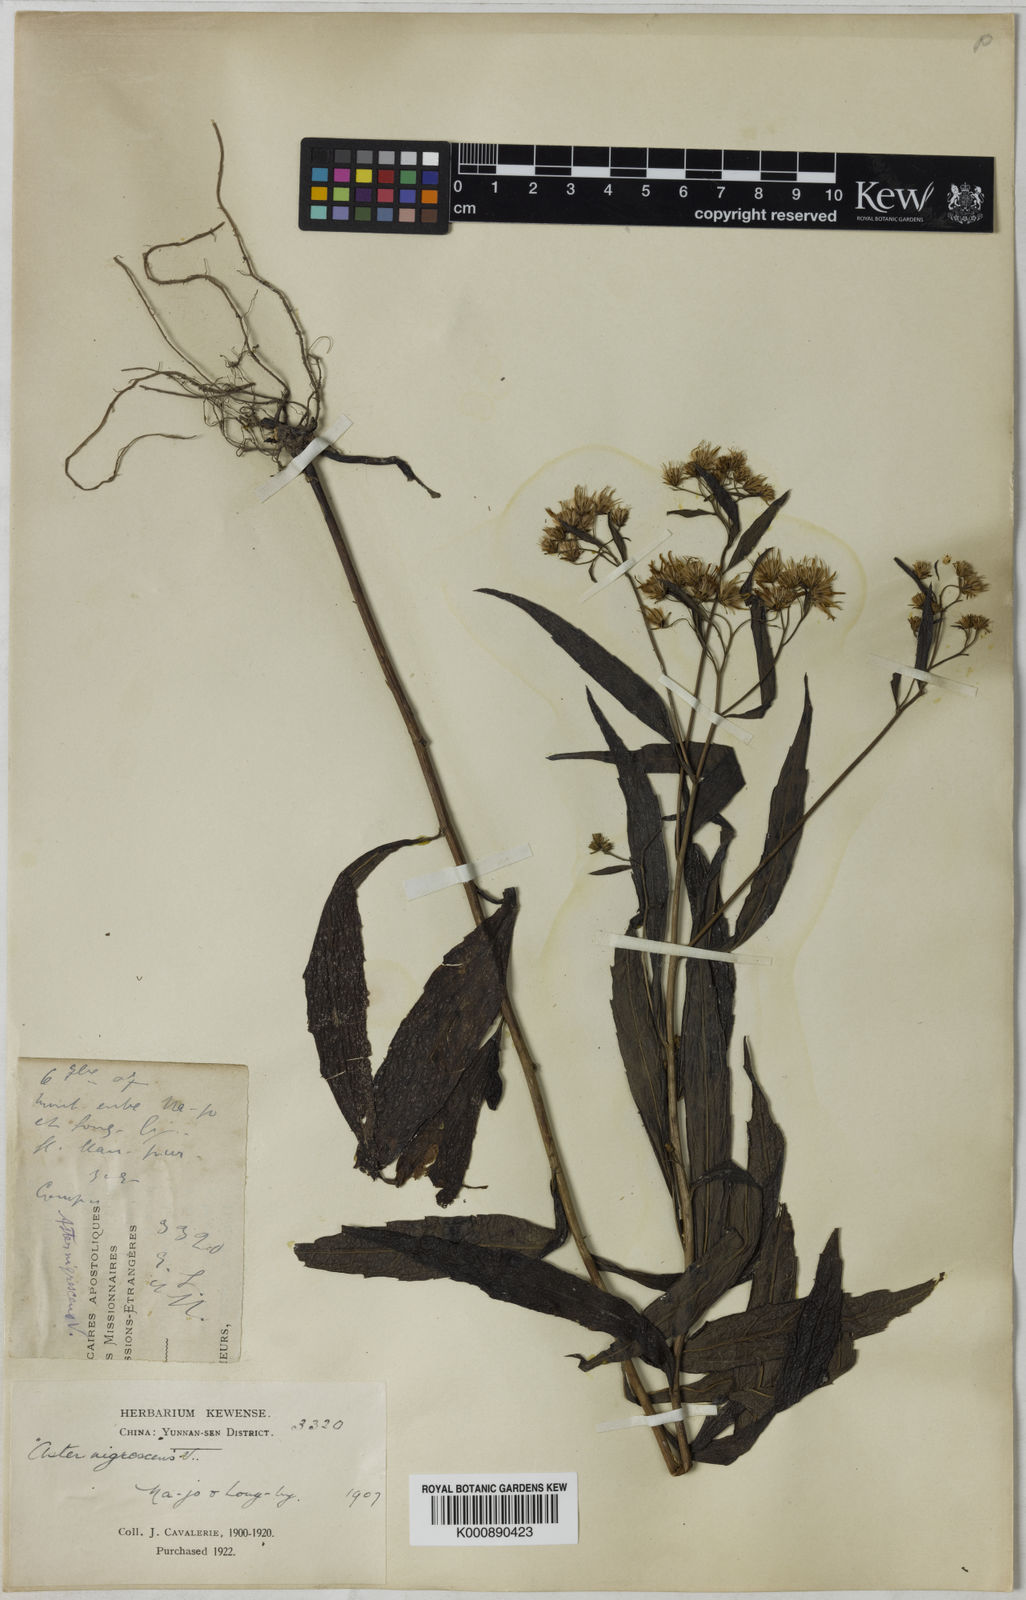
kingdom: Plantae
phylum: Tracheophyta
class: Magnoliopsida
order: Asterales
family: Asteraceae
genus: Aster
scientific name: Aster
